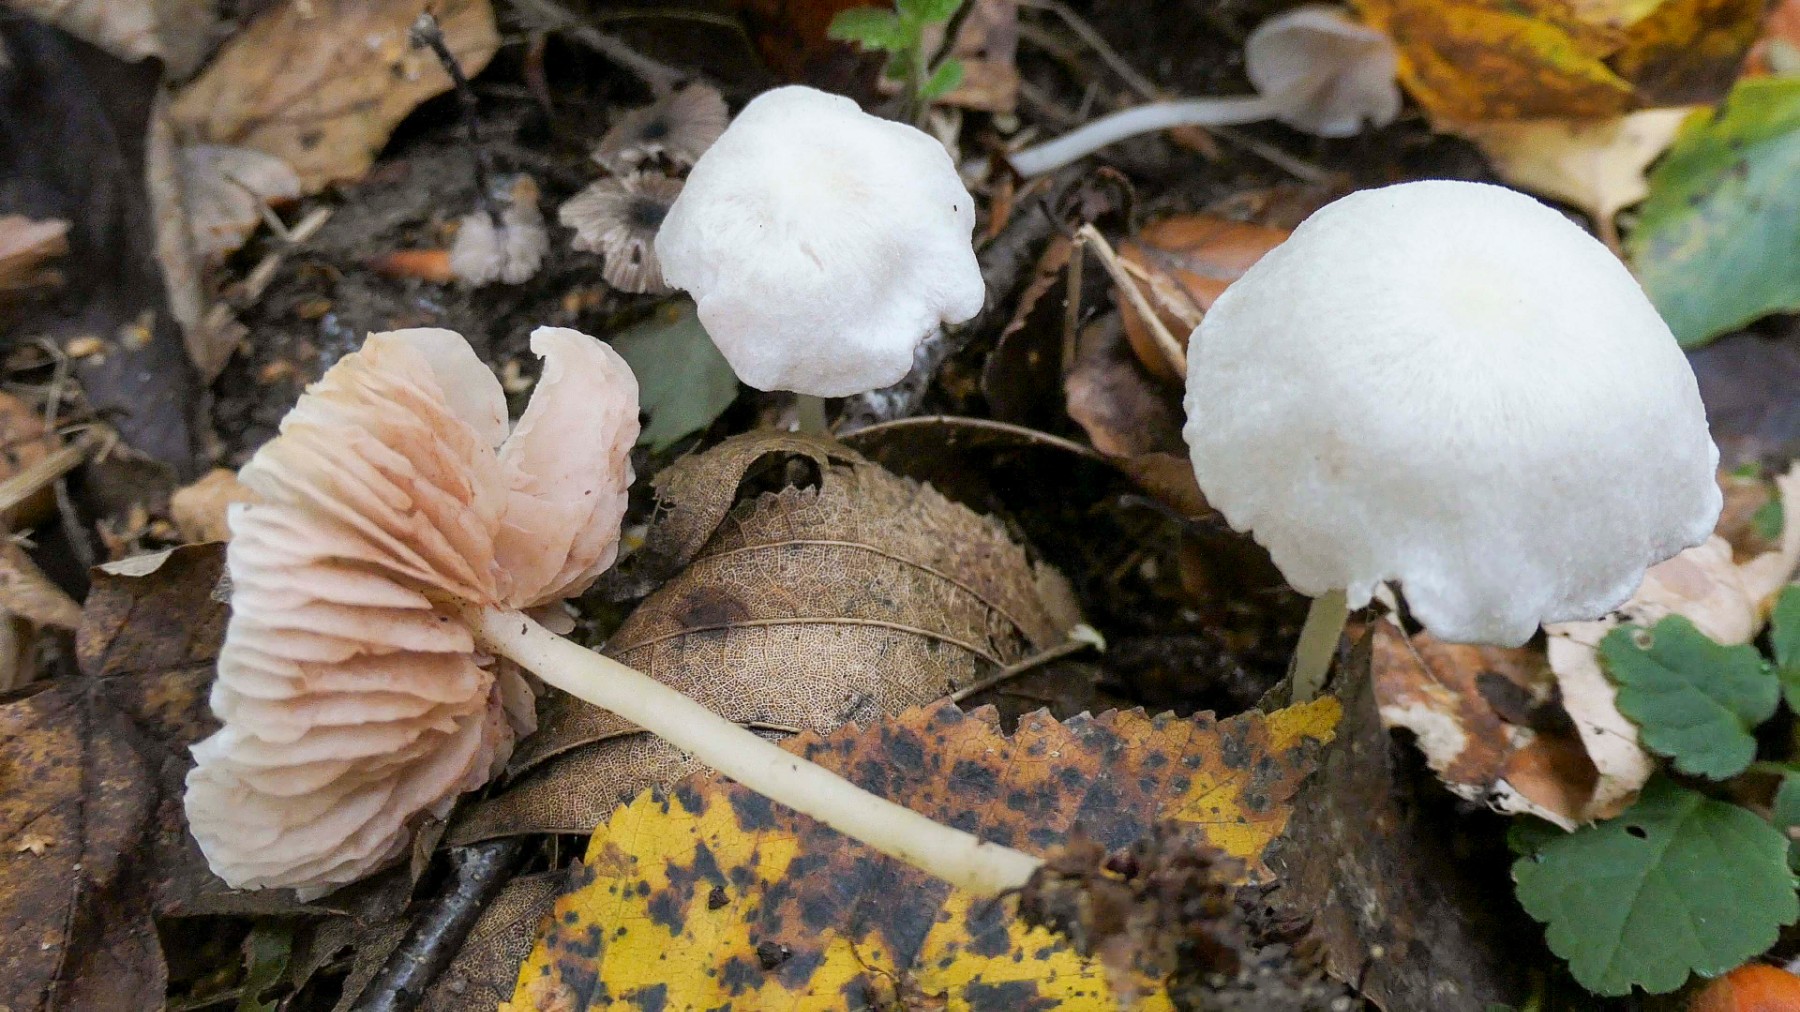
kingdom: Fungi
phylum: Basidiomycota
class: Agaricomycetes
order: Agaricales
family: Entolomataceae
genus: Entoloma
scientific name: Entoloma sericellum
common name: silkehvid rødblad
